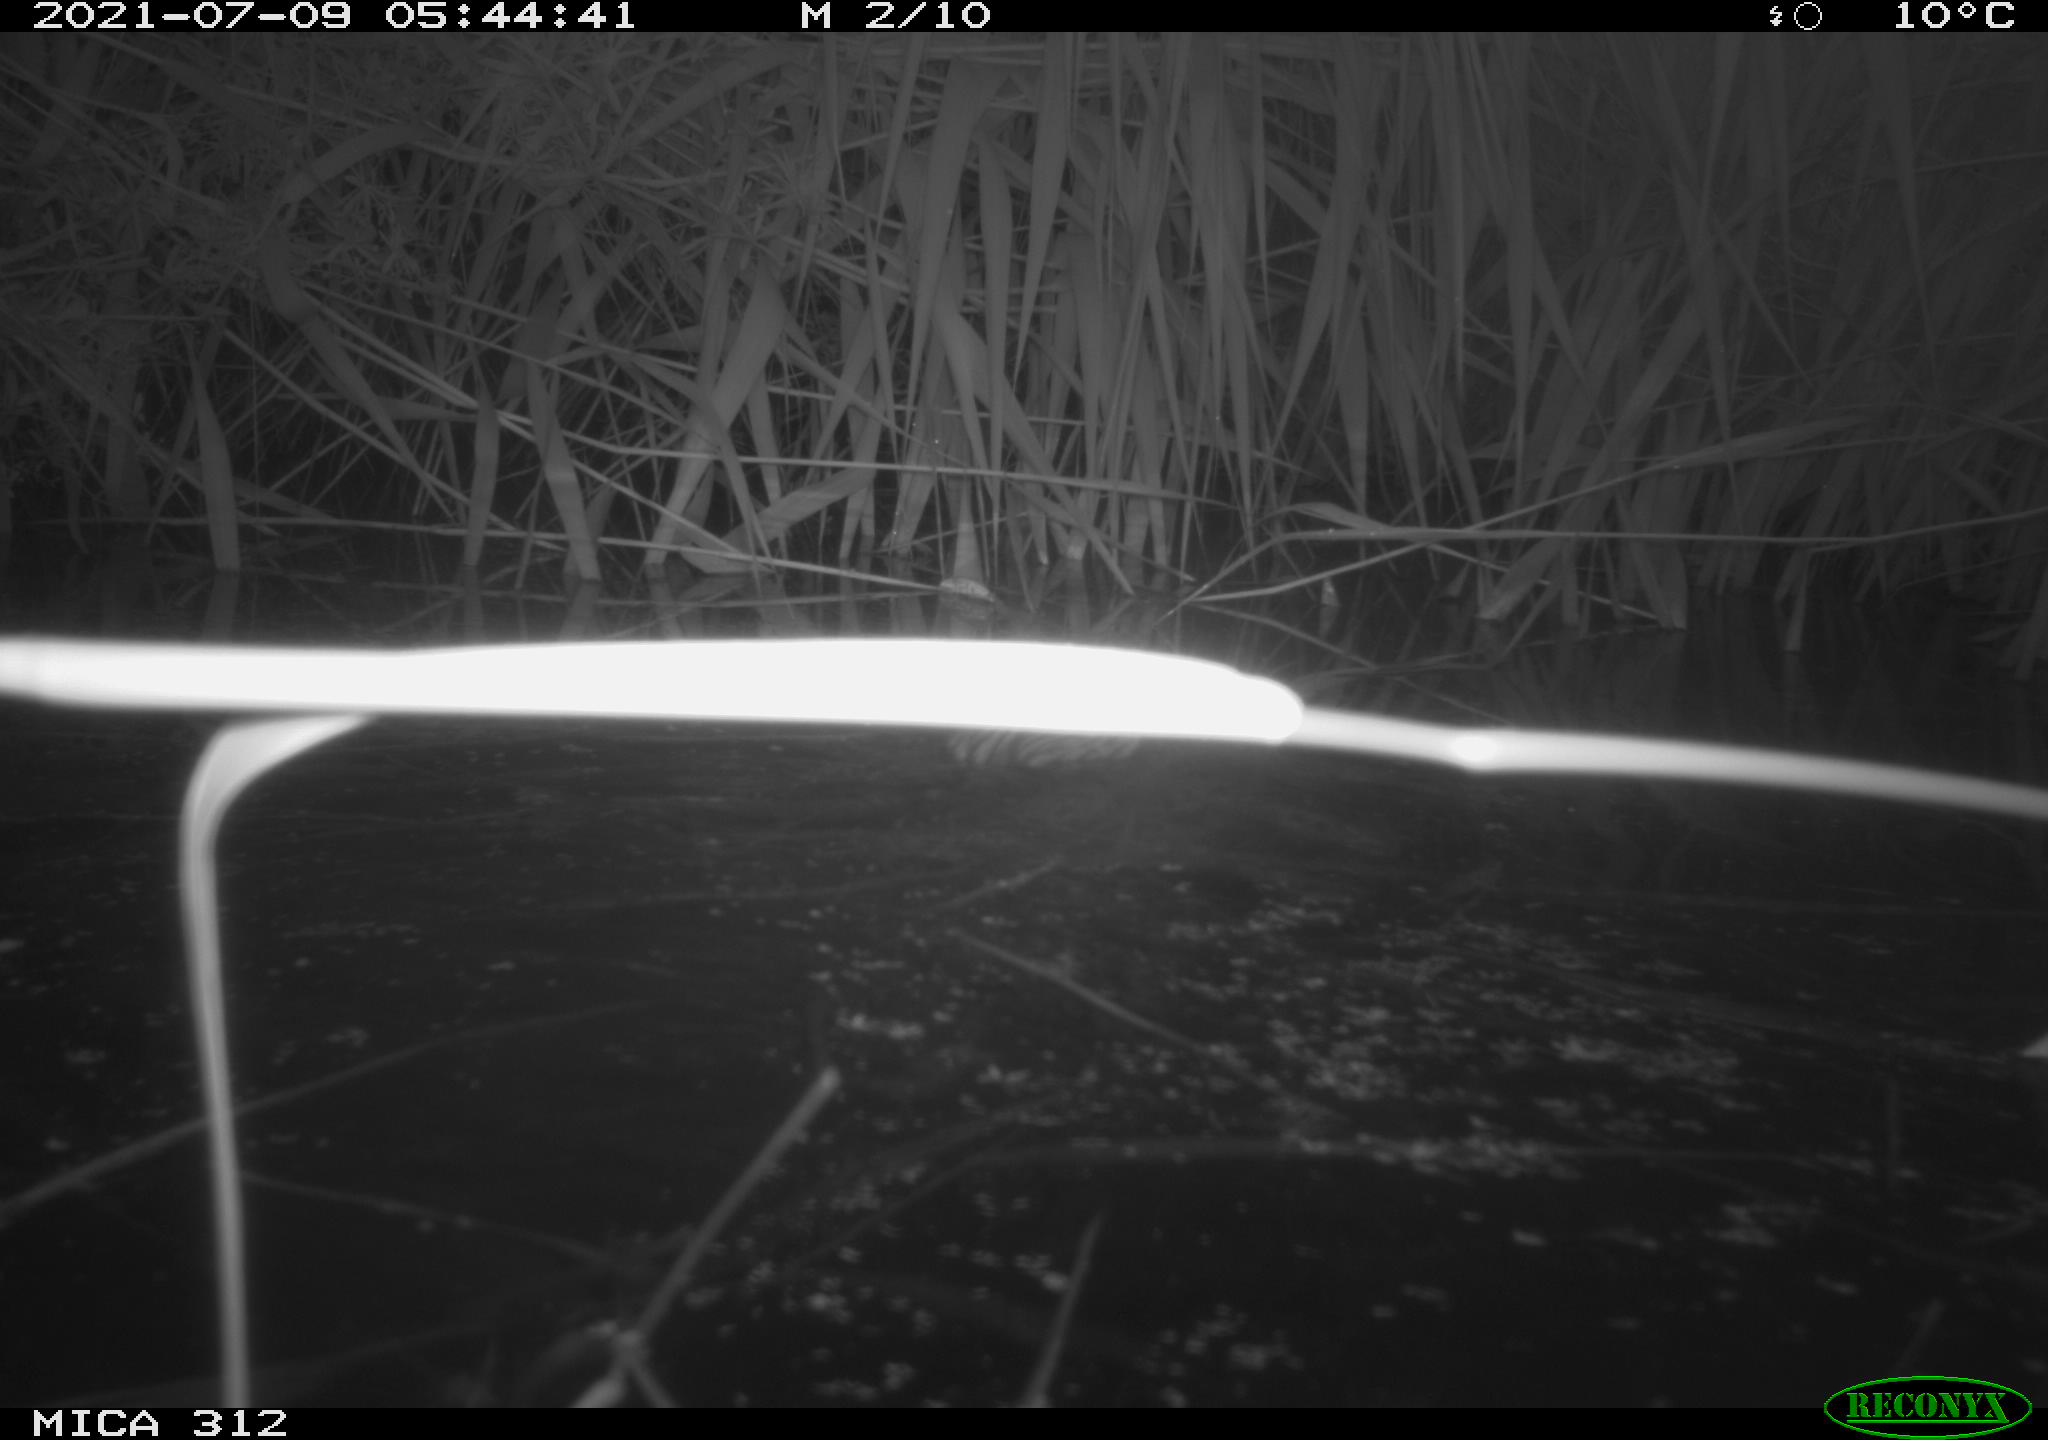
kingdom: Animalia
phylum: Chordata
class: Mammalia
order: Rodentia
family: Cricetidae
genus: Ondatra
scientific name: Ondatra zibethicus
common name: Muskrat
